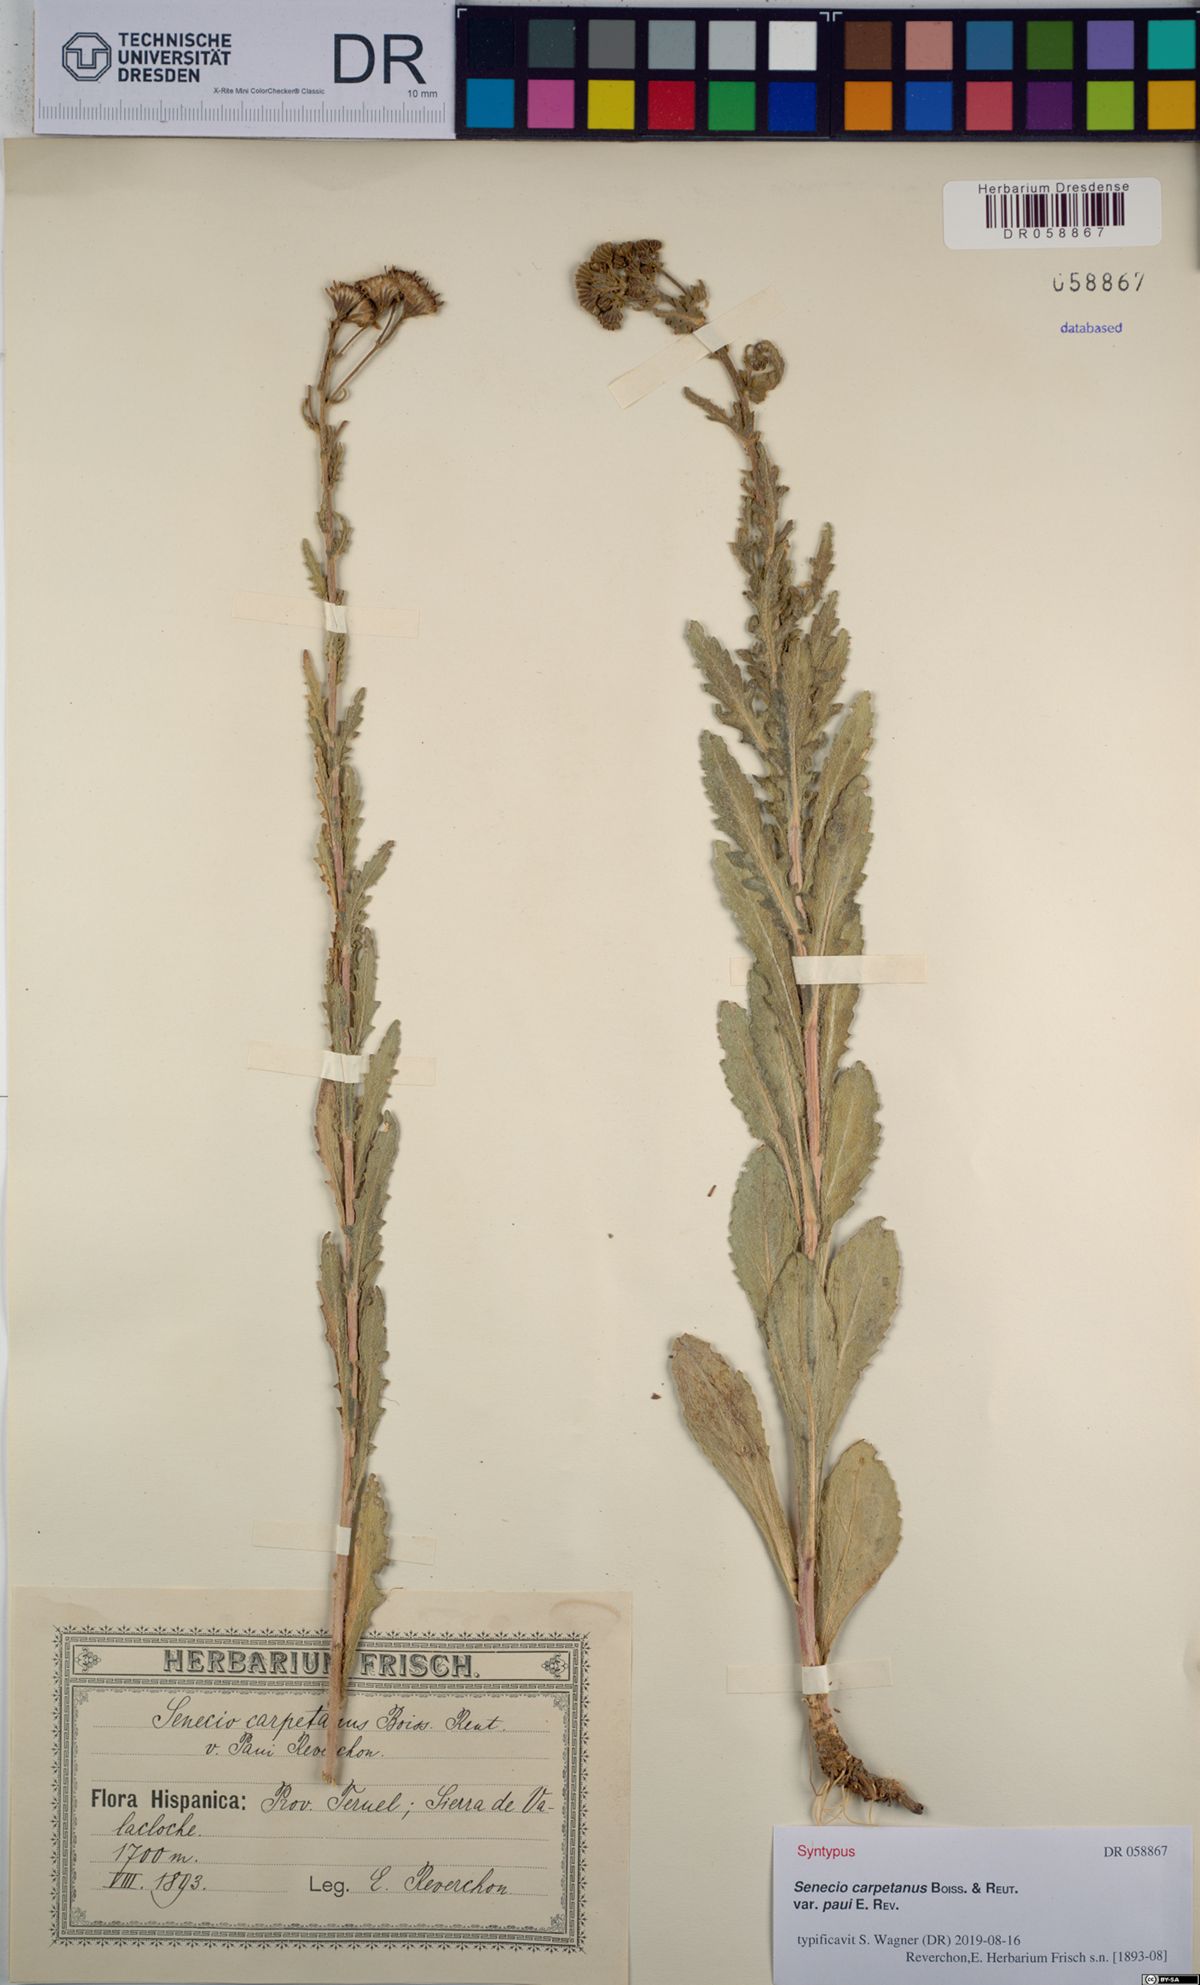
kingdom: Plantae
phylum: Tracheophyta
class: Magnoliopsida
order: Asterales
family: Asteraceae
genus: Senecio
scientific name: Senecio carpetanus
